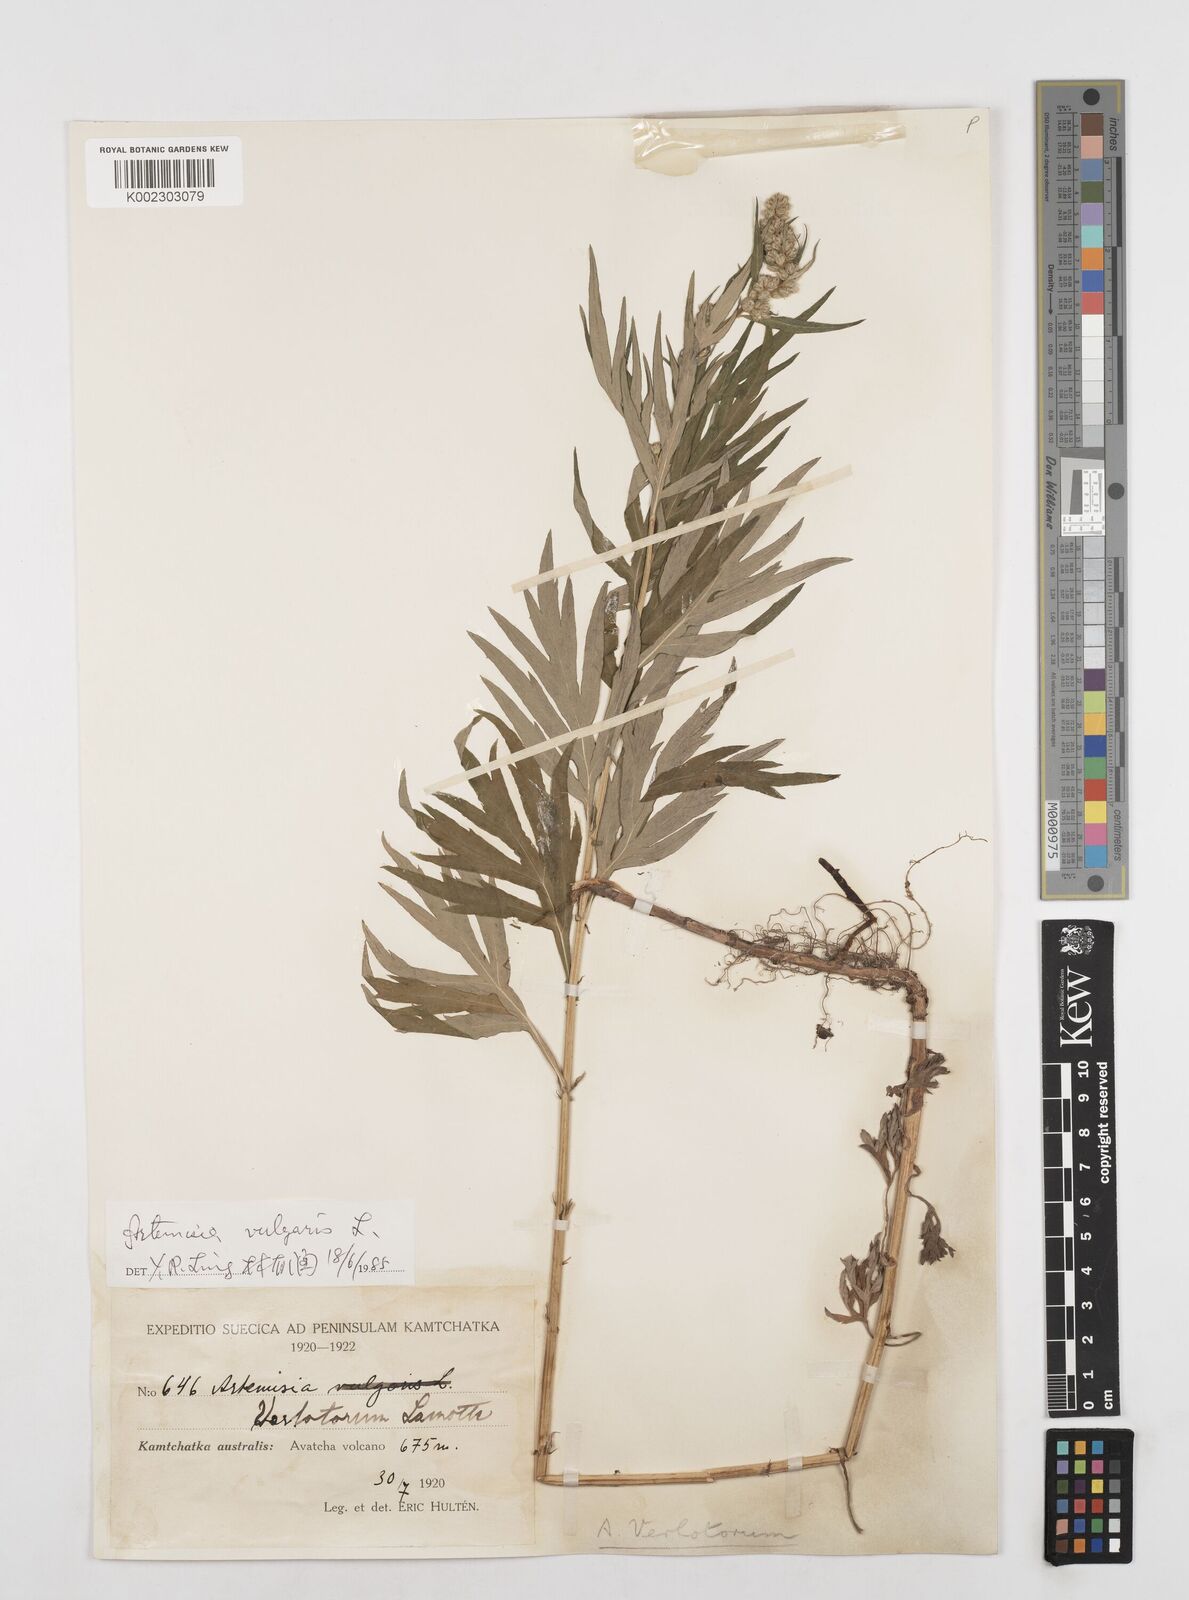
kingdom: Plantae
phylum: Tracheophyta
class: Magnoliopsida
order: Asterales
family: Asteraceae
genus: Artemisia
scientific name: Artemisia vulgaris
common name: Mugwort
